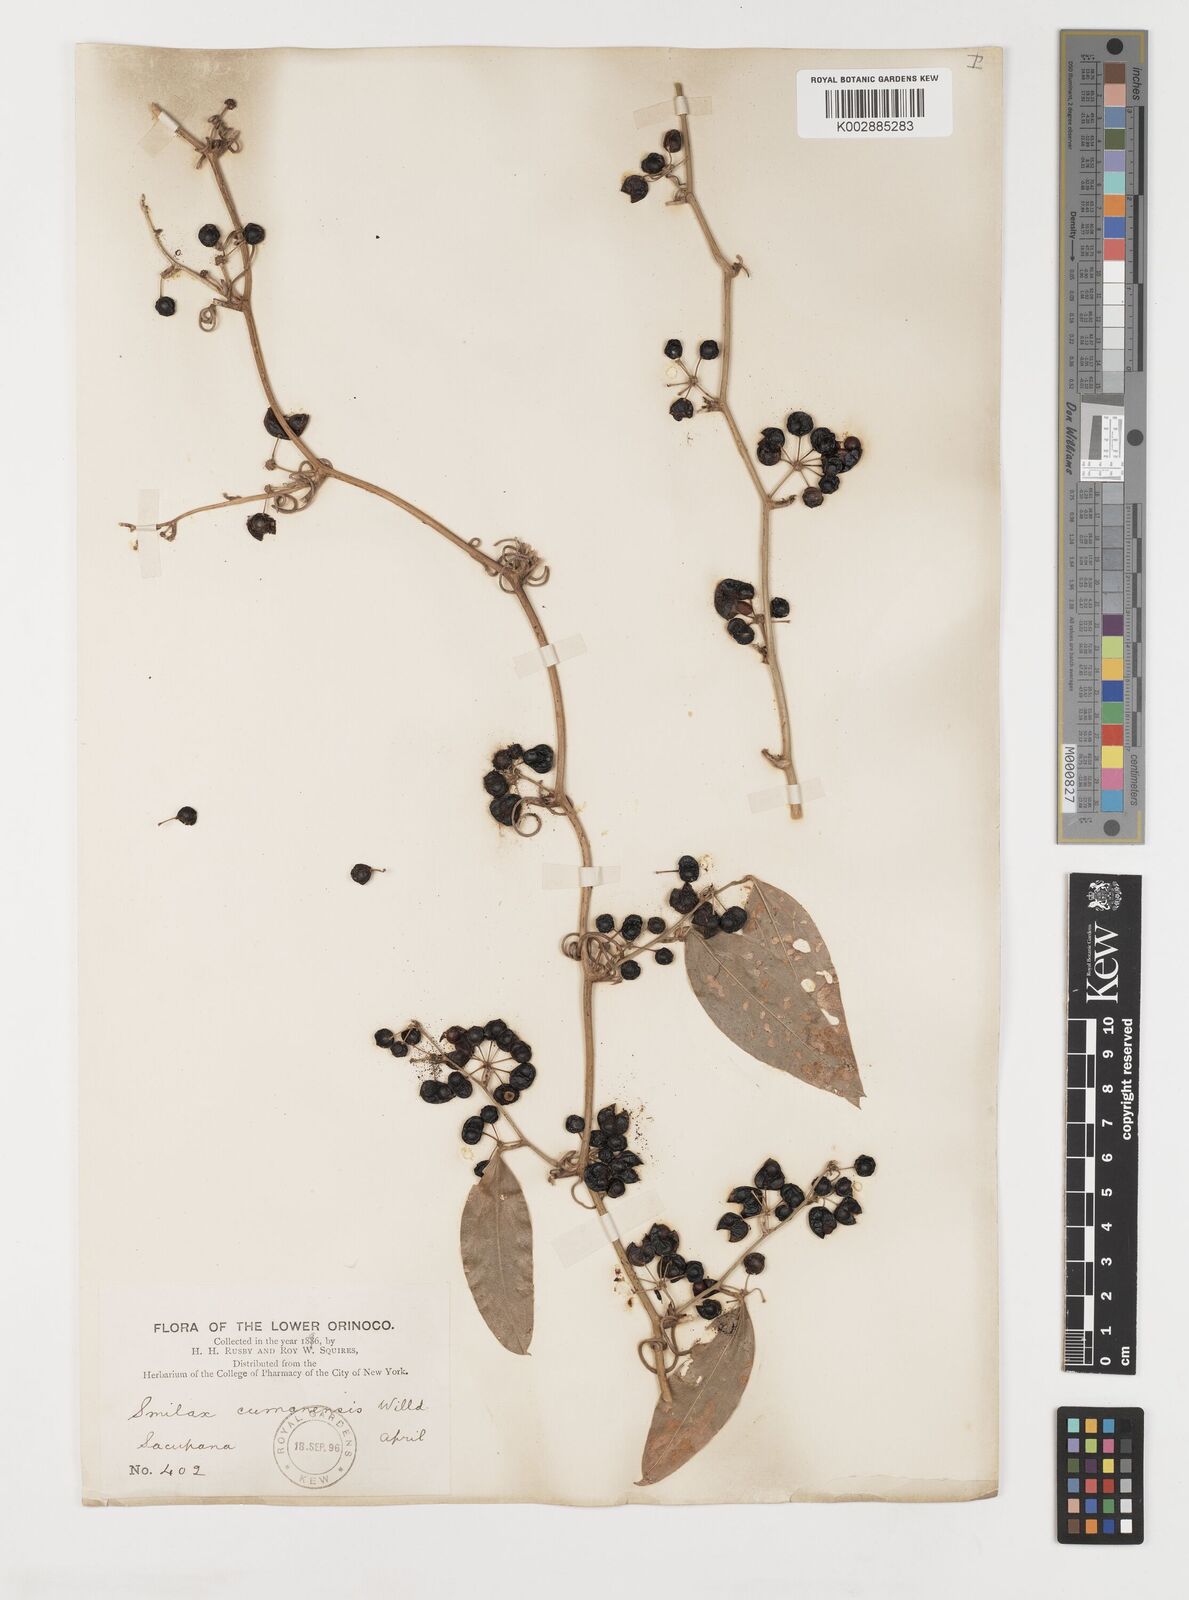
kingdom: Plantae
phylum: Tracheophyta
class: Liliopsida
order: Liliales
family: Smilacaceae
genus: Smilax
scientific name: Smilax oblongata
